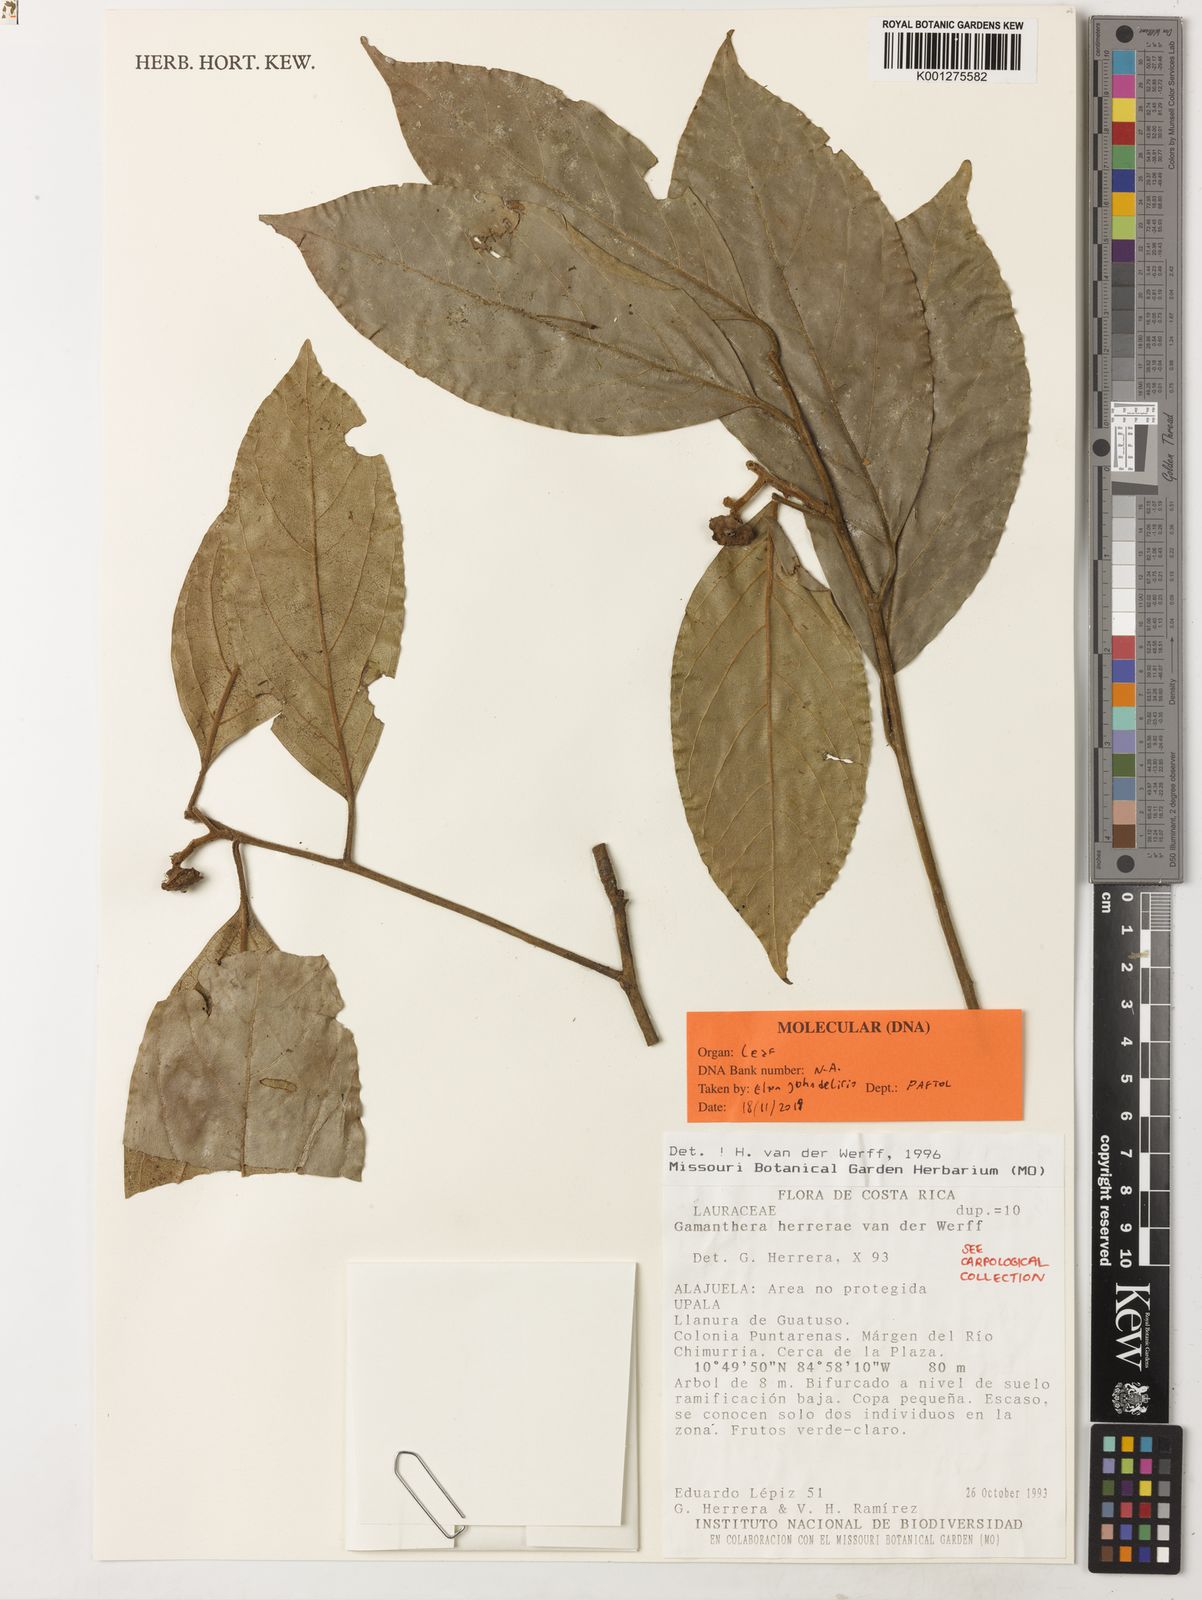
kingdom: Plantae
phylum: Tracheophyta
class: Magnoliopsida
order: Laurales
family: Lauraceae
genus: Licaria
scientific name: Licaria herrerae
